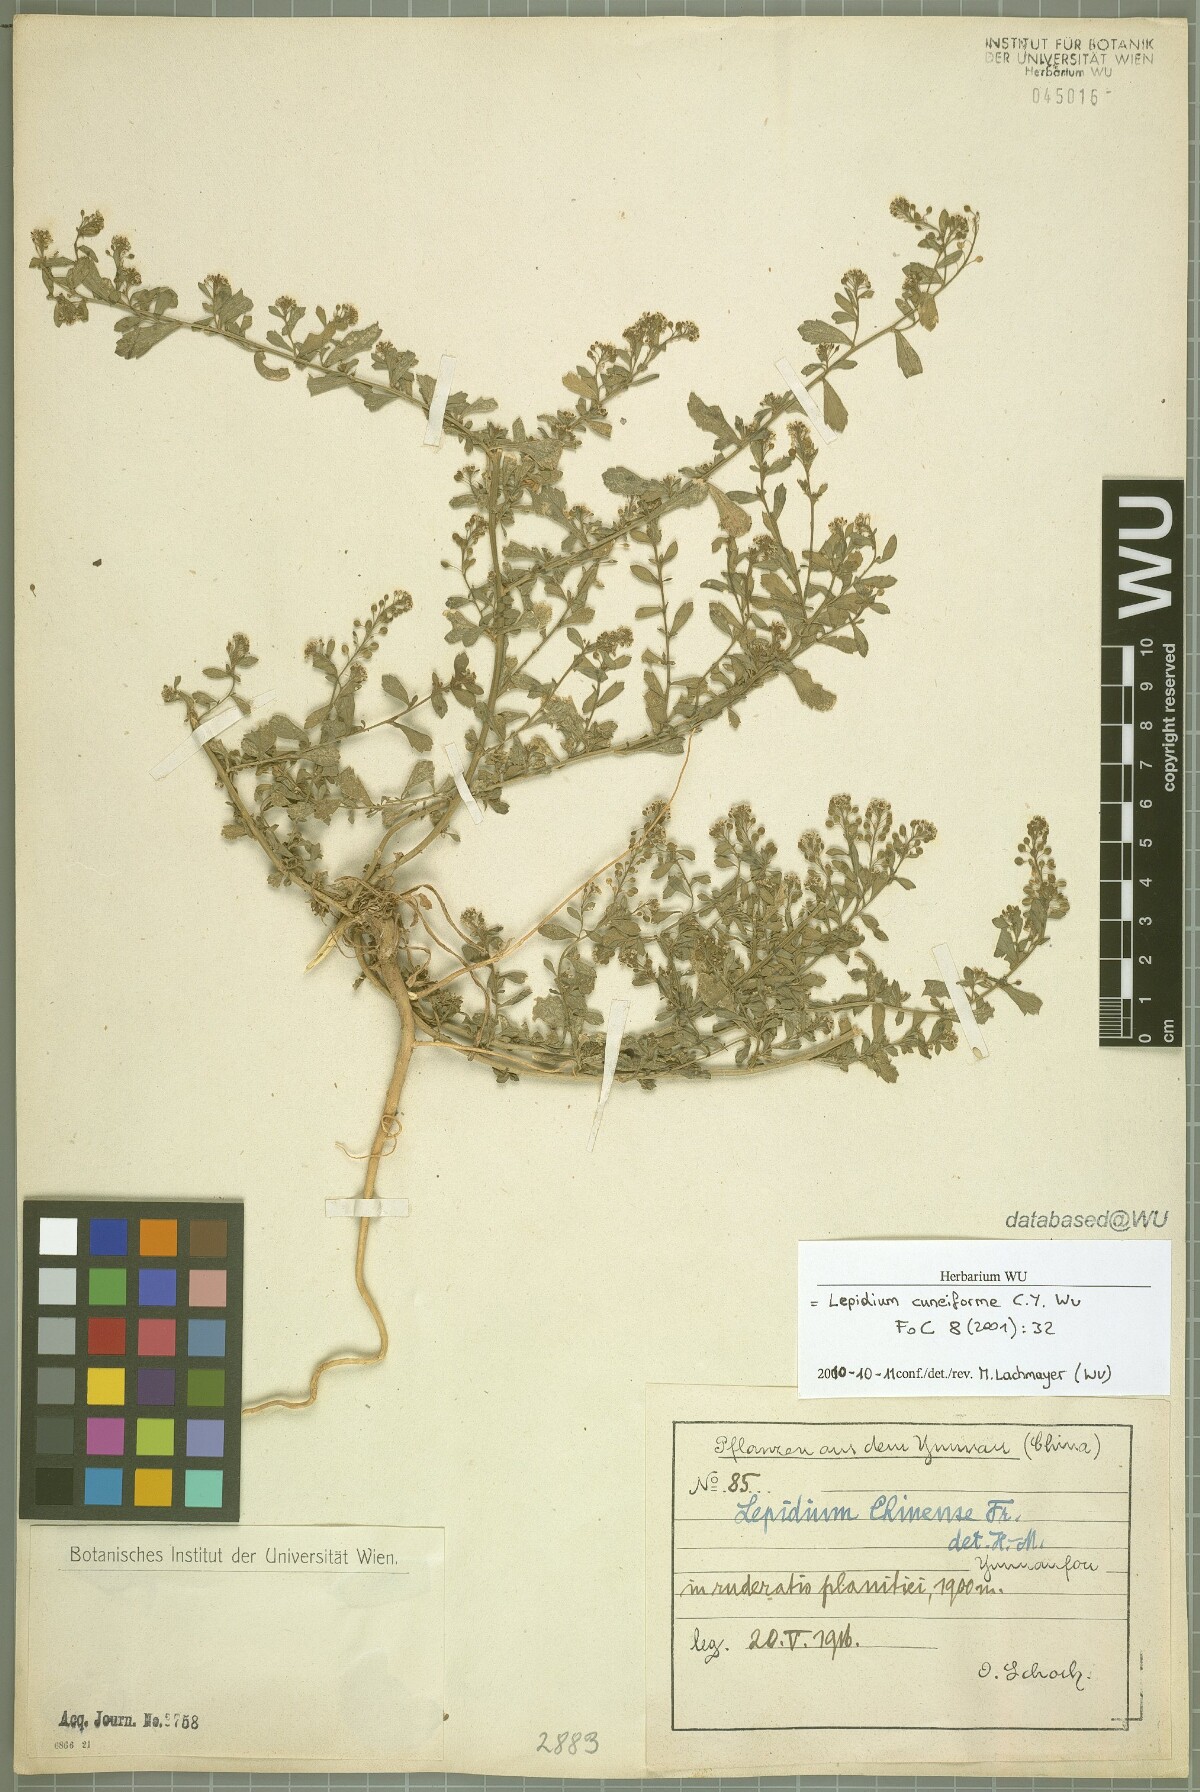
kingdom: Plantae
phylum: Tracheophyta
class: Magnoliopsida
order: Brassicales
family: Brassicaceae
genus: Lepidium
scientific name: Lepidium cuneiforme
